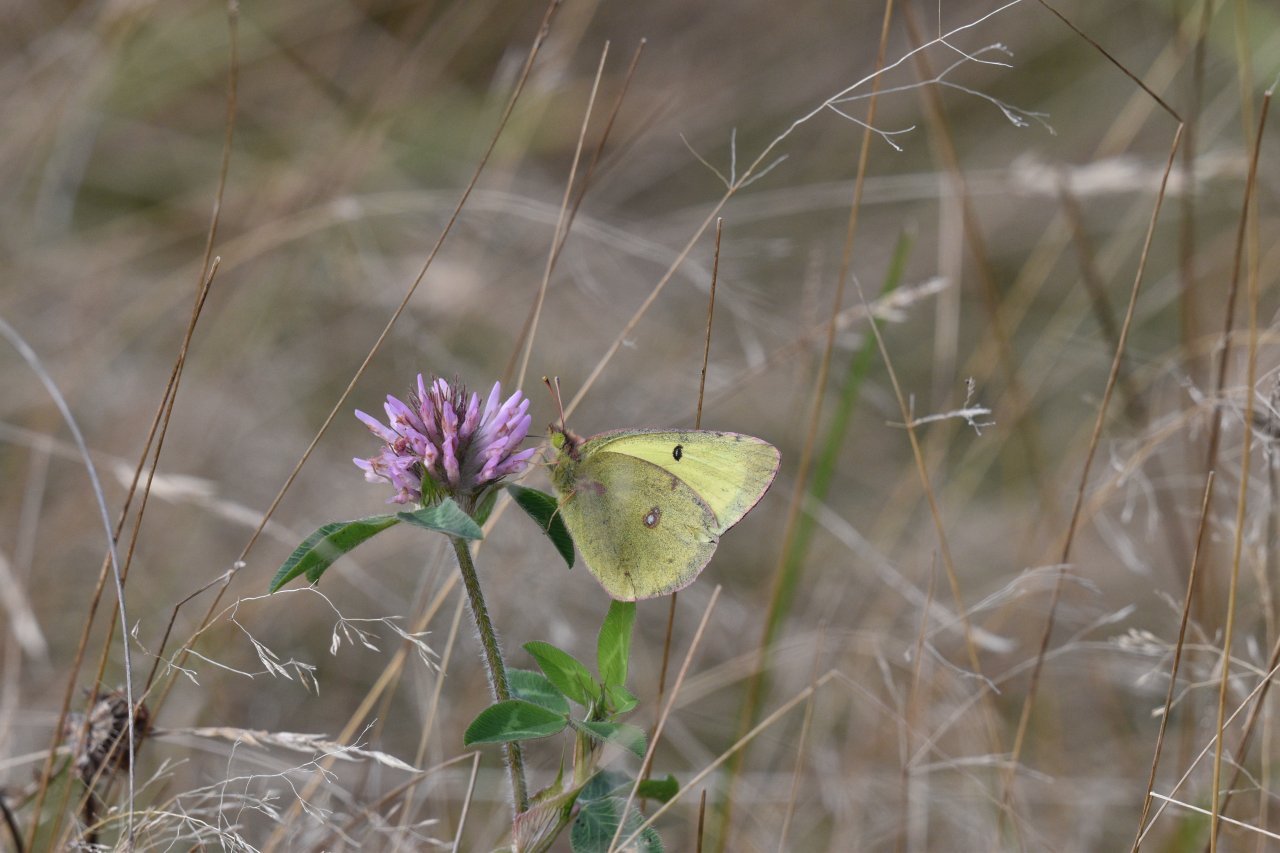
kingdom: Animalia
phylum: Arthropoda
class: Insecta
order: Lepidoptera
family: Pieridae
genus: Colias
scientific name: Colias philodice
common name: Clouded Sulphur
